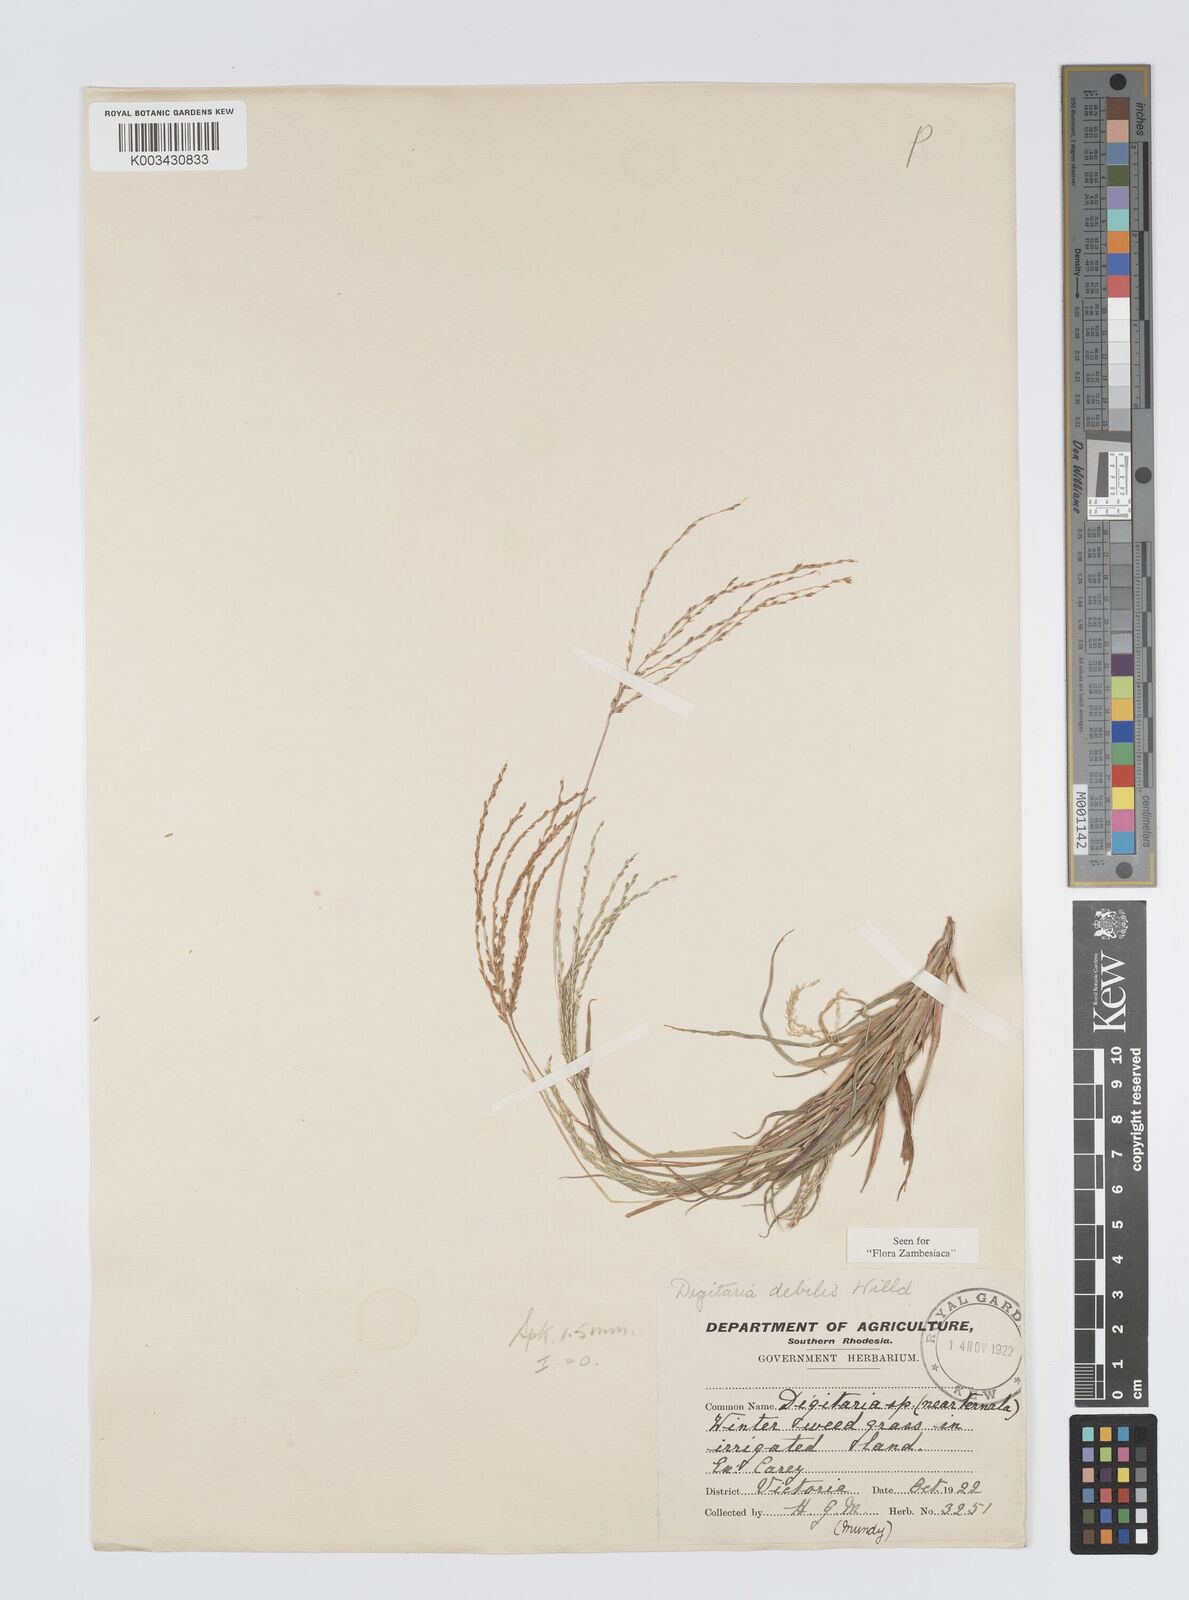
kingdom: Plantae
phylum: Tracheophyta
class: Liliopsida
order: Poales
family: Poaceae
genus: Digitaria
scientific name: Digitaria debilis
